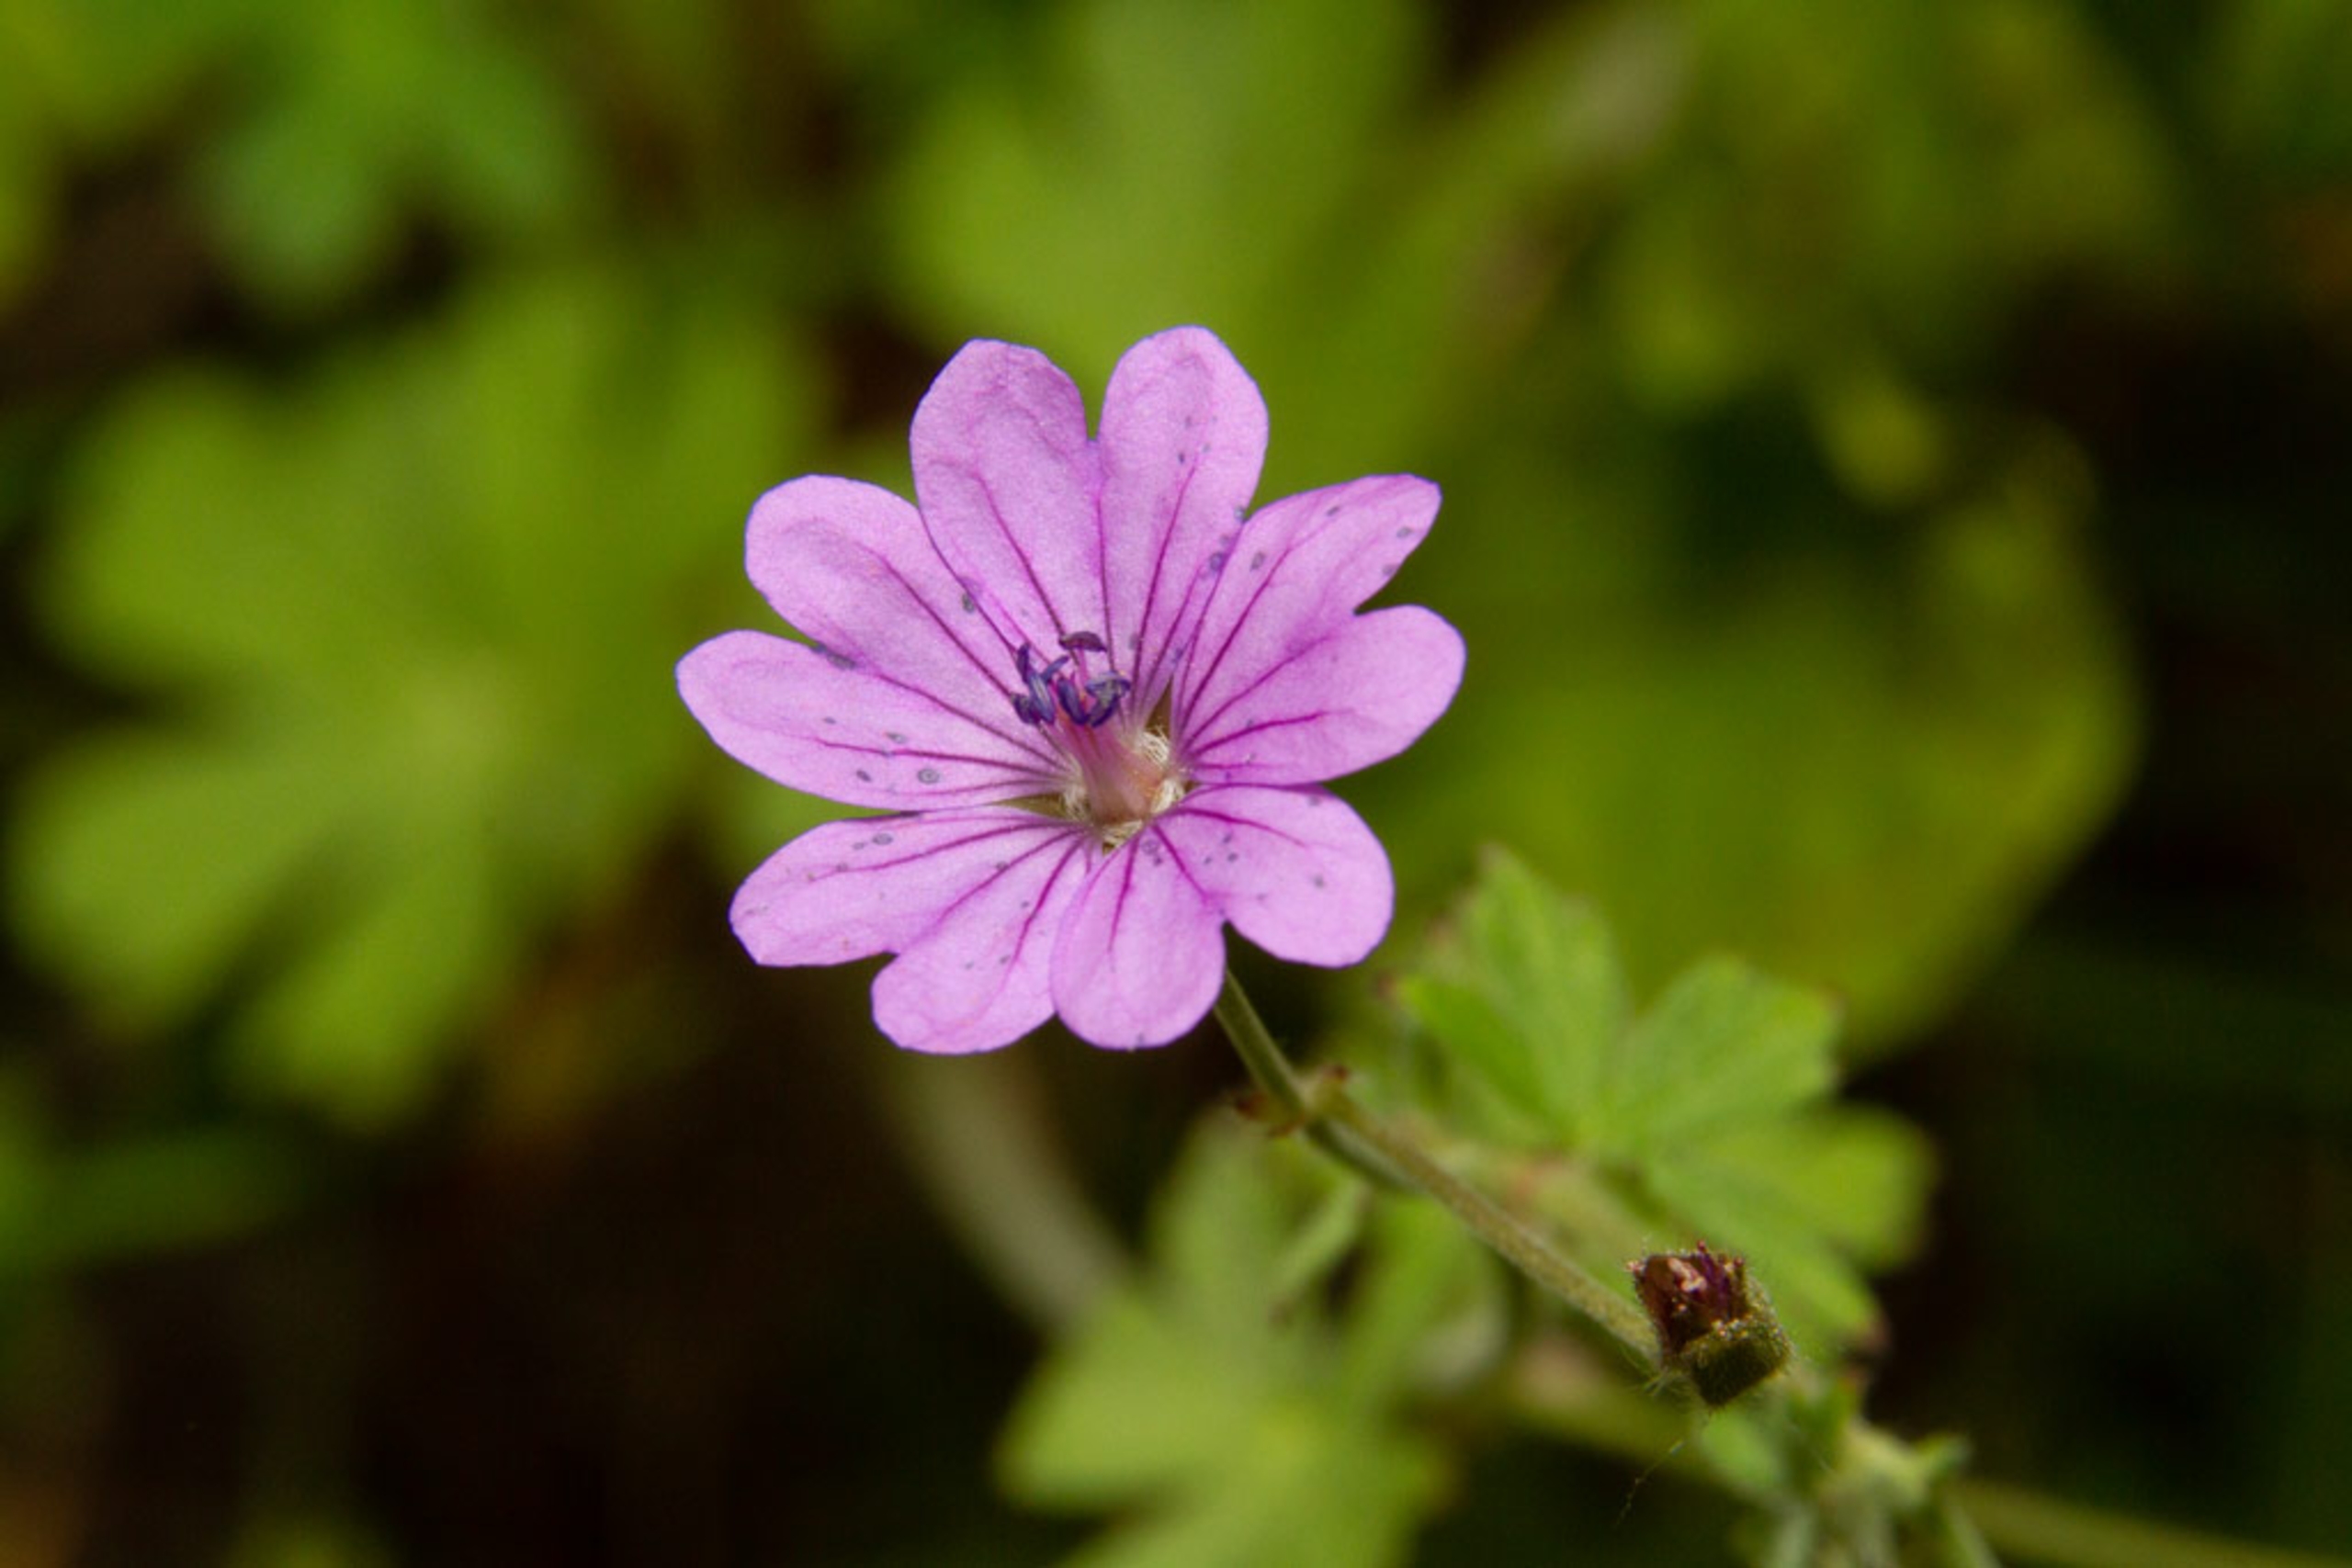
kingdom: Plantae
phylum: Tracheophyta
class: Magnoliopsida
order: Geraniales
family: Geraniaceae
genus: Geranium
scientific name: Geranium pyrenaicum
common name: Pyrenæisk storkenæb
